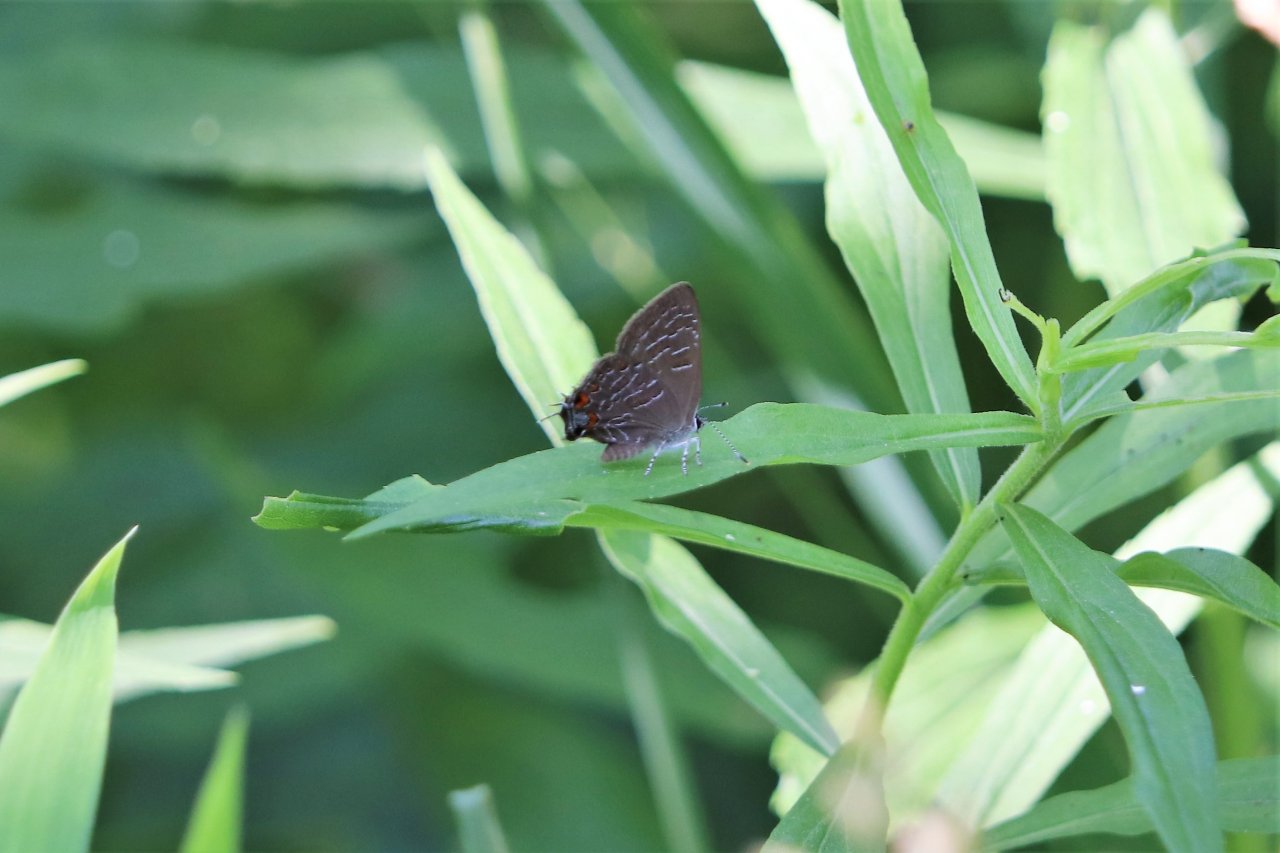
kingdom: Animalia
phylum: Arthropoda
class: Insecta
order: Lepidoptera
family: Lycaenidae
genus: Satyrium
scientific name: Satyrium liparops
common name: Striped Hairstreak
